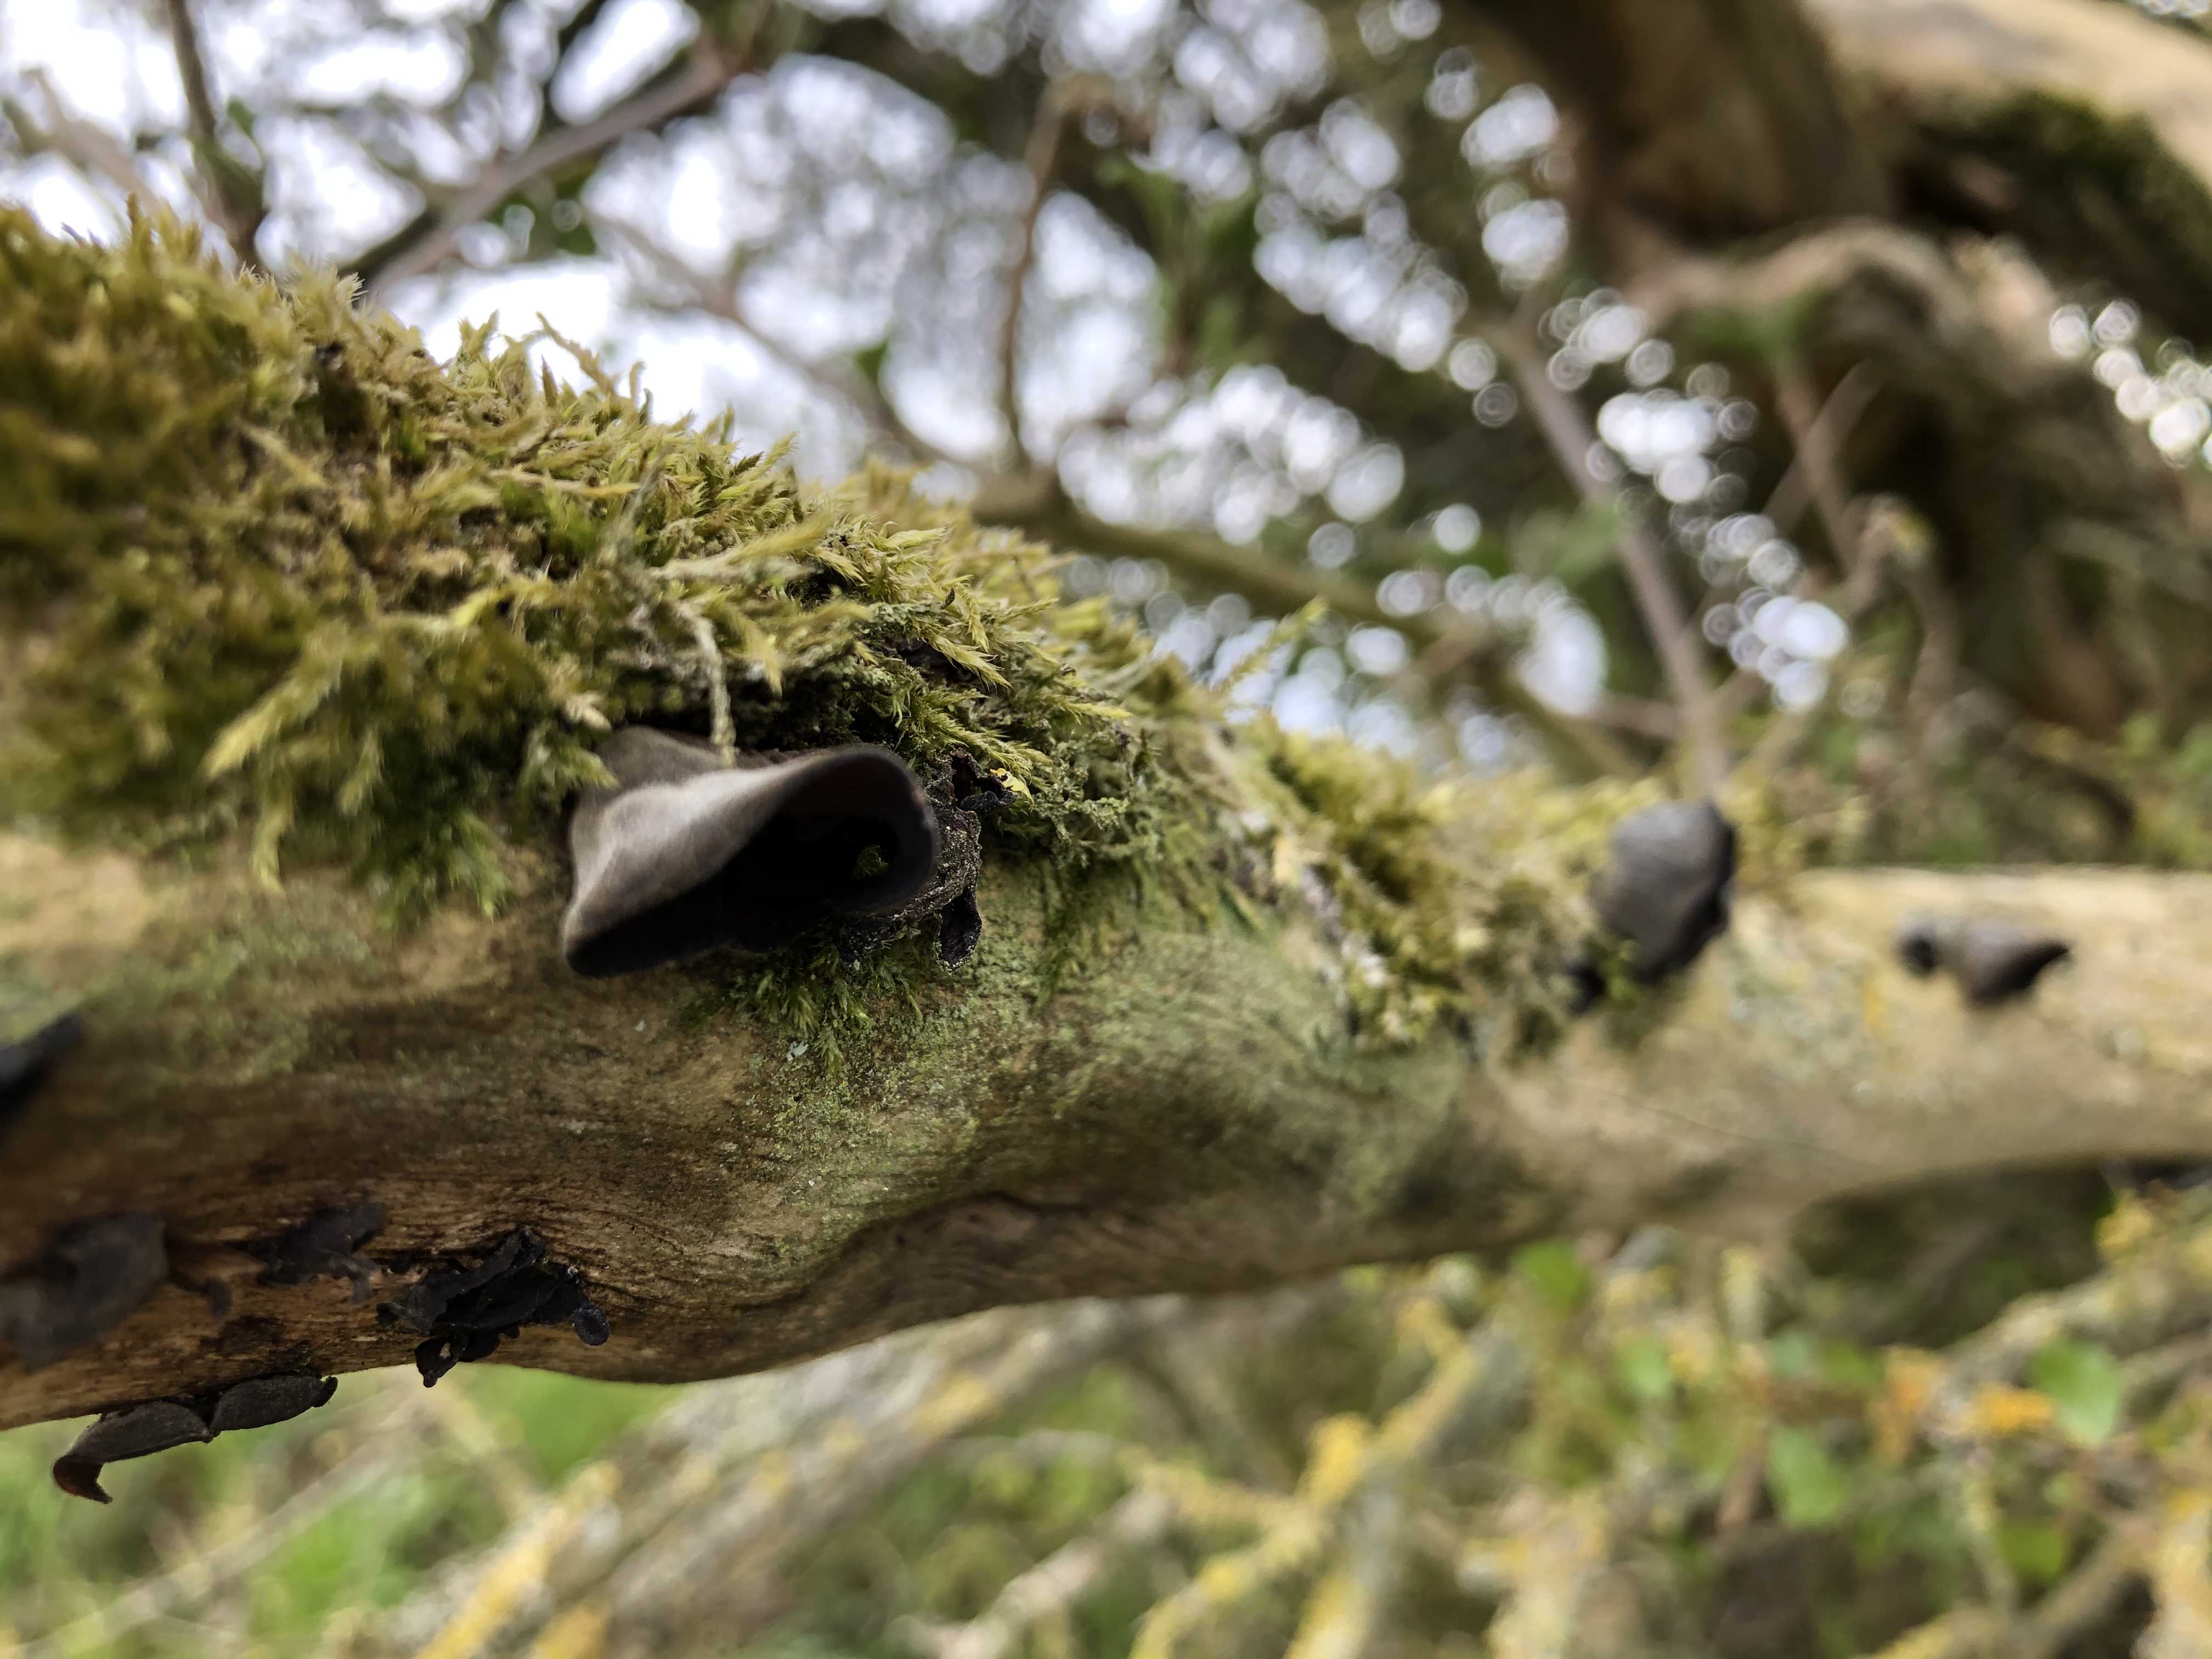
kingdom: Fungi
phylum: Basidiomycota
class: Agaricomycetes
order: Auriculariales
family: Auriculariaceae
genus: Auricularia
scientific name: Auricularia auricula-judae
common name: almindelig judasøre
